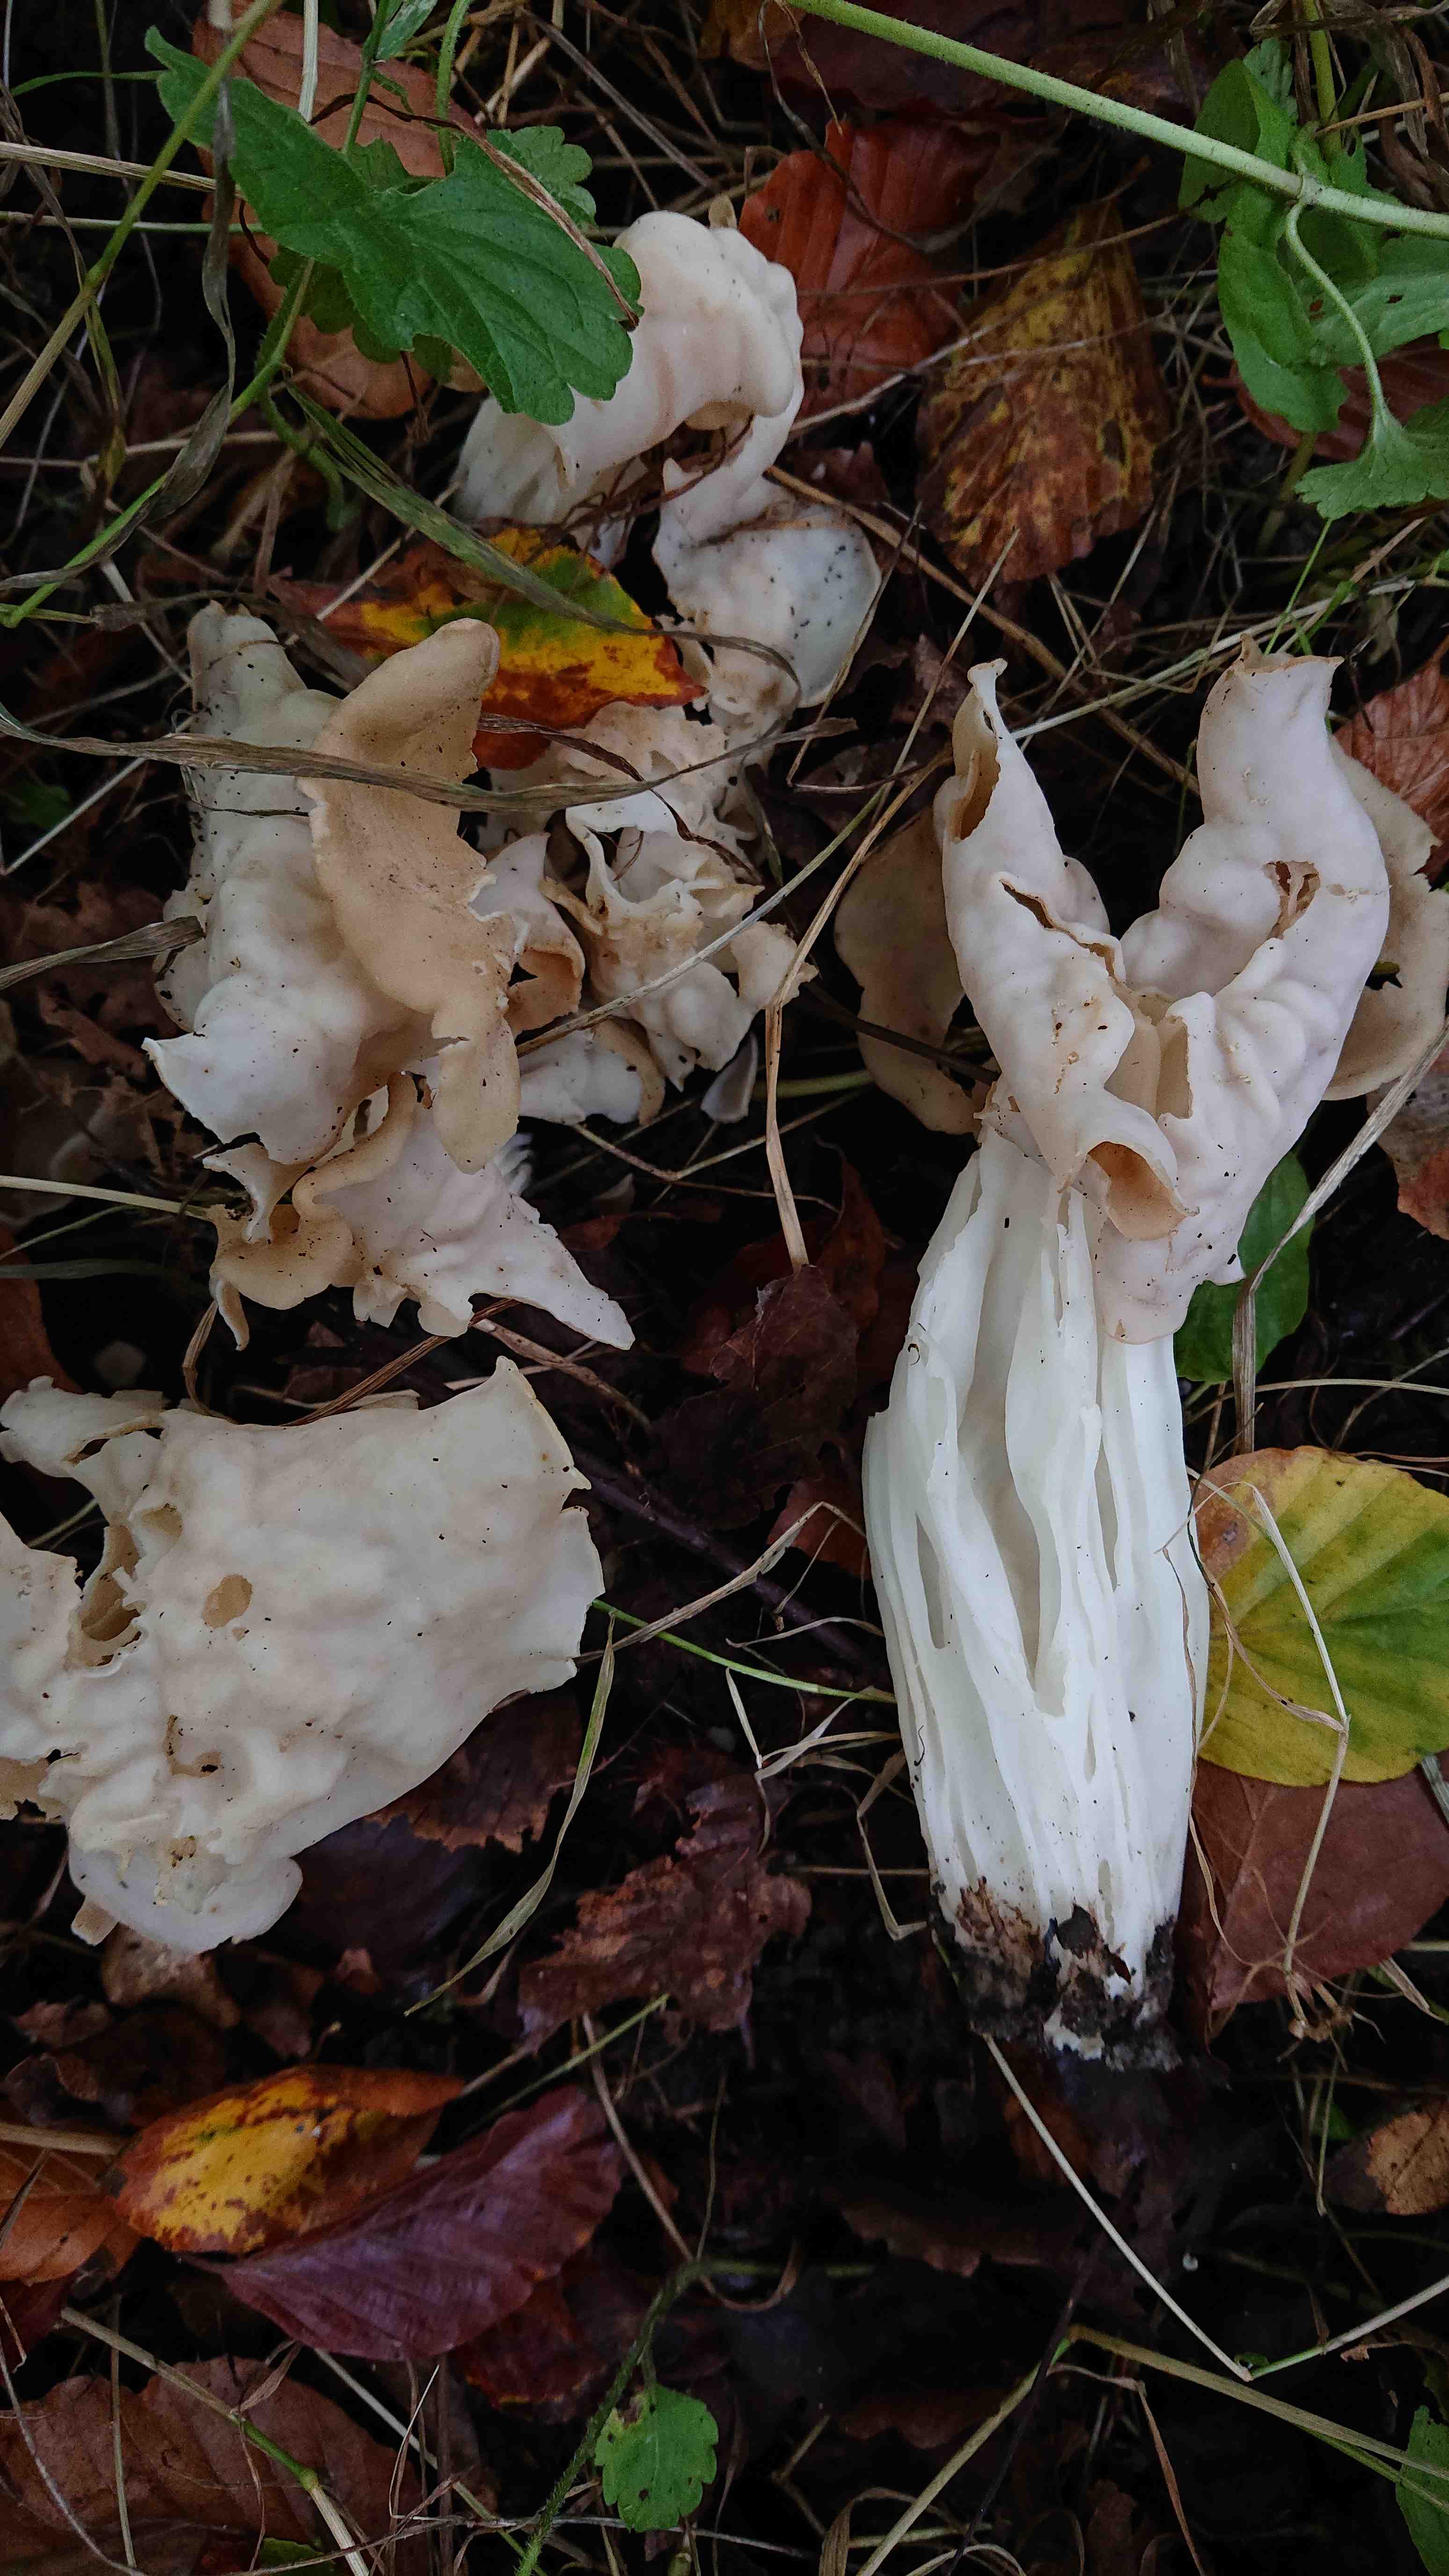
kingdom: Fungi
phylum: Ascomycota
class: Pezizomycetes
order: Pezizales
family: Helvellaceae
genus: Helvella
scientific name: Helvella crispa
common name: kruset foldhat
